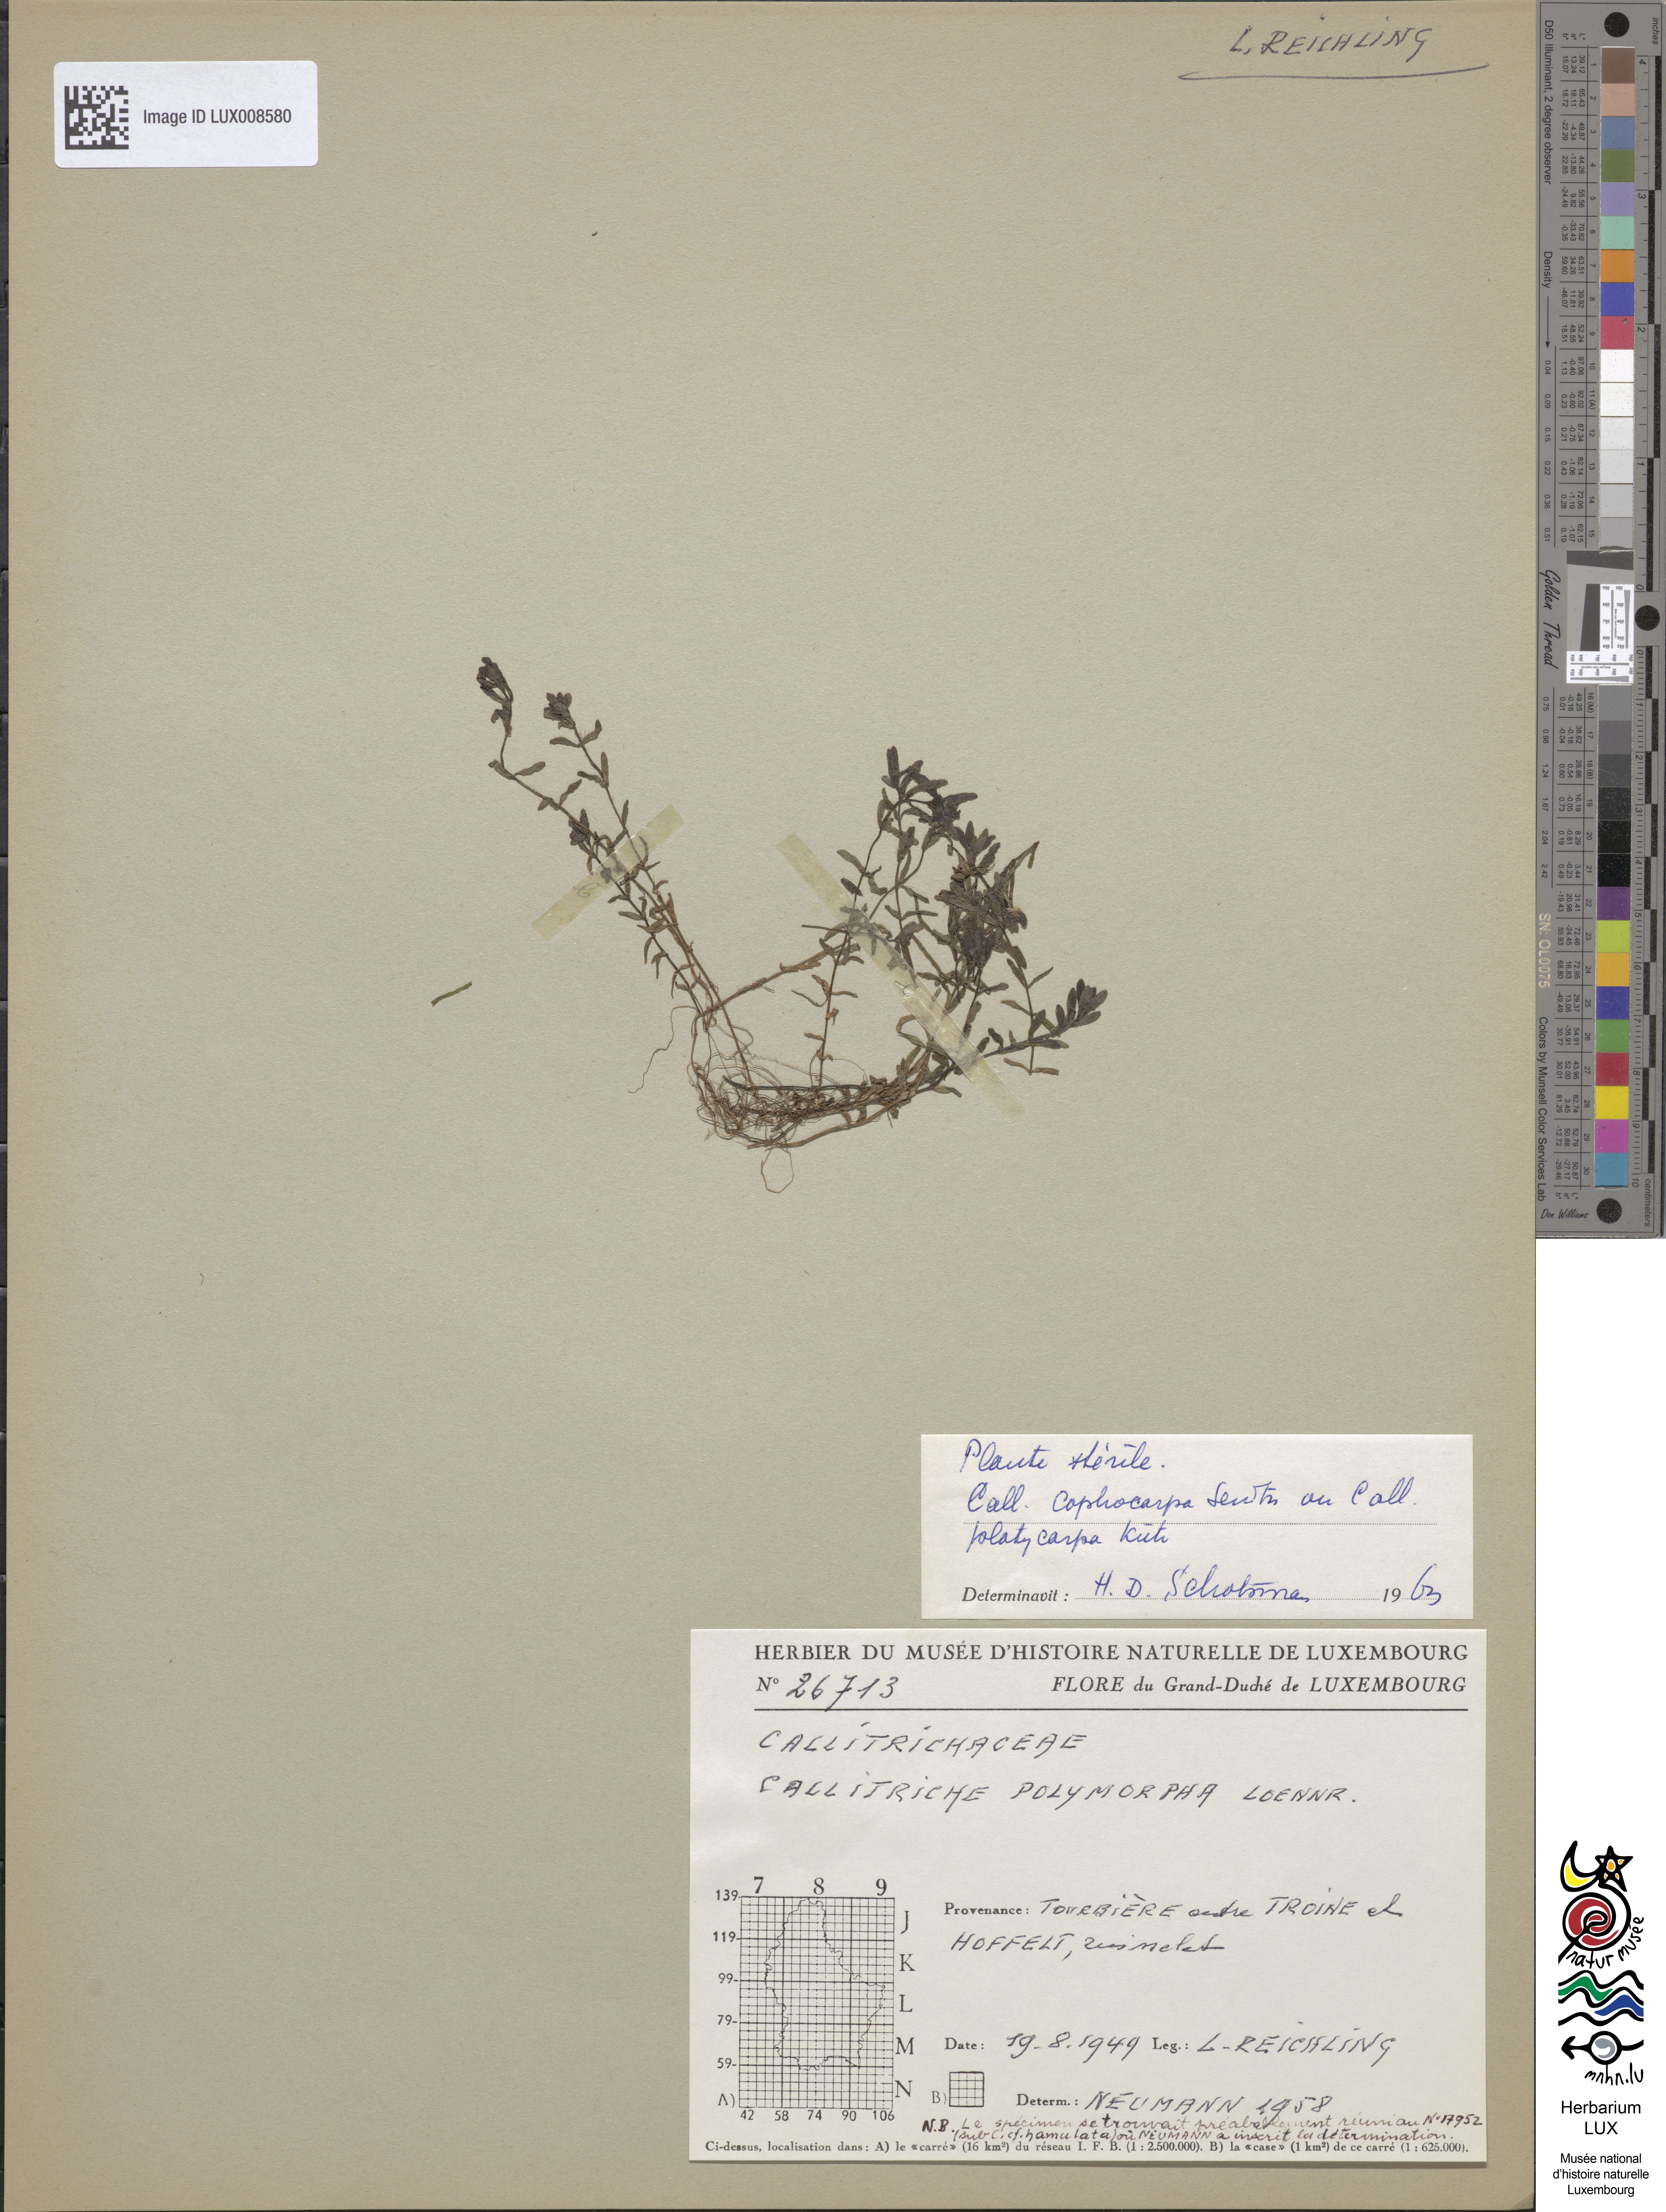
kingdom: Plantae
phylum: Tracheophyta
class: Magnoliopsida
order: Lamiales
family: Plantaginaceae
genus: Callitriche
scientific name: Callitriche cophocarpa
